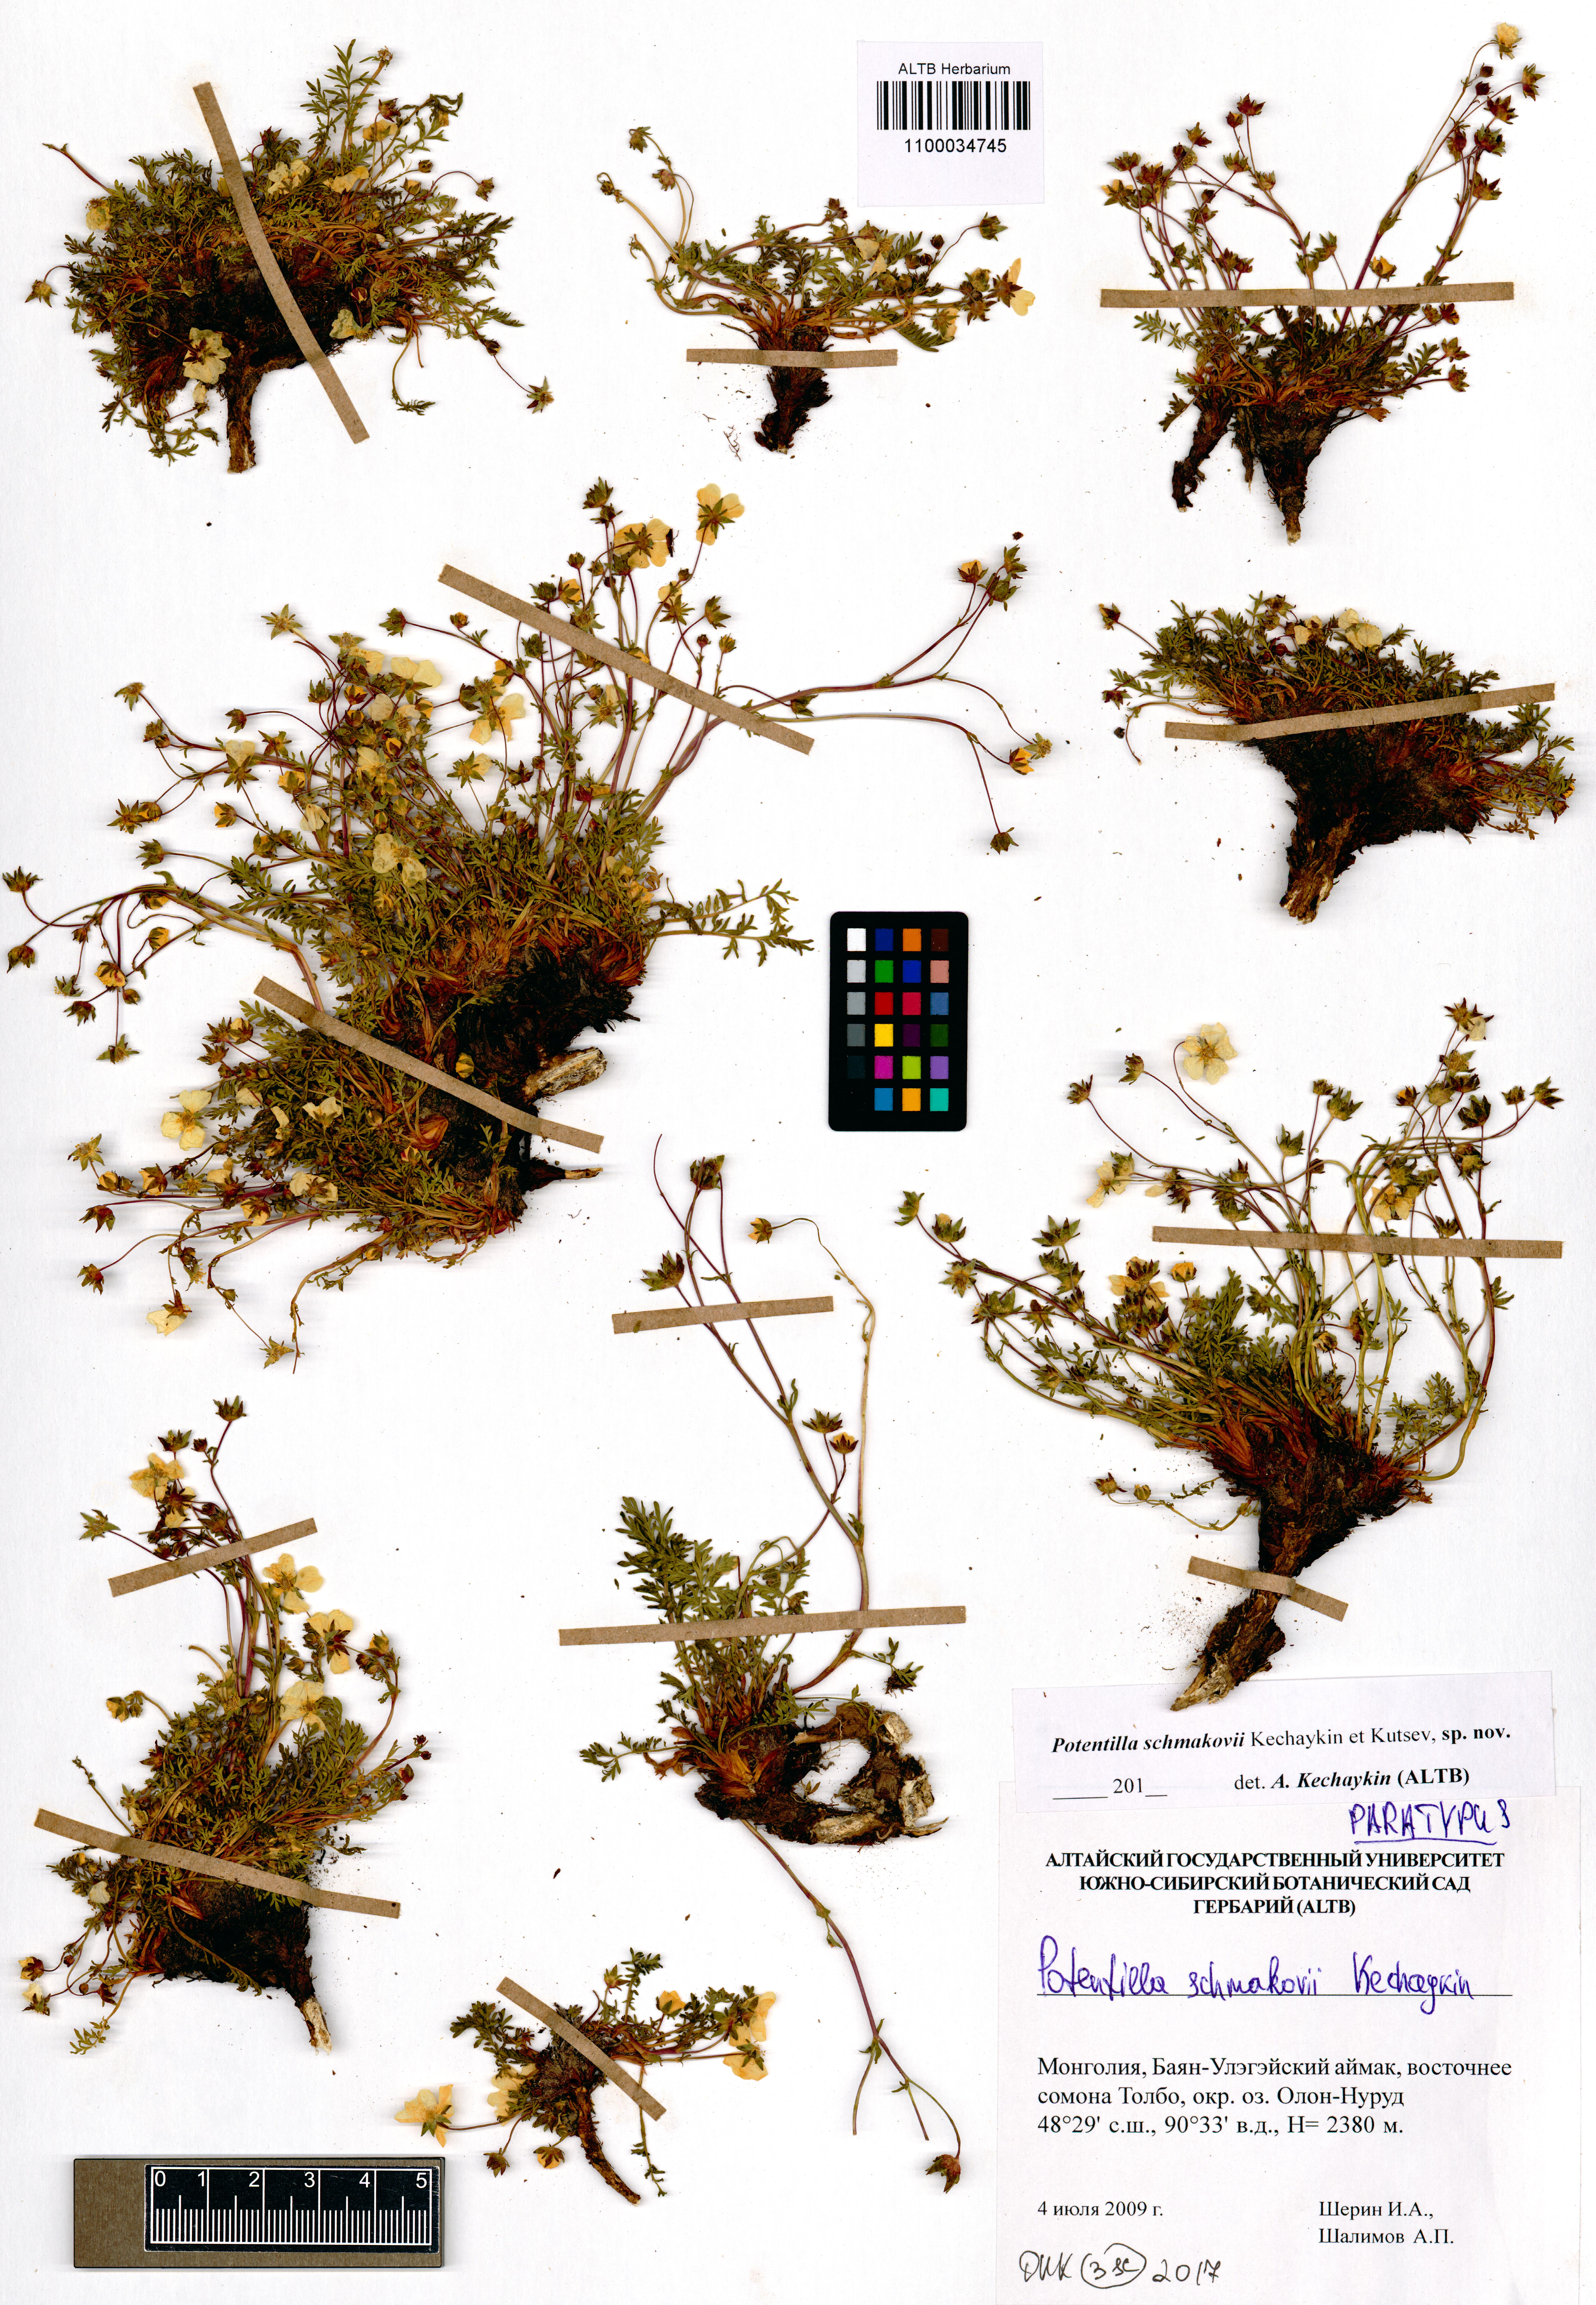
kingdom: Plantae
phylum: Tracheophyta
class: Magnoliopsida
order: Rosales
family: Rosaceae
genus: Potentilla
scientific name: Potentilla schmakovii
